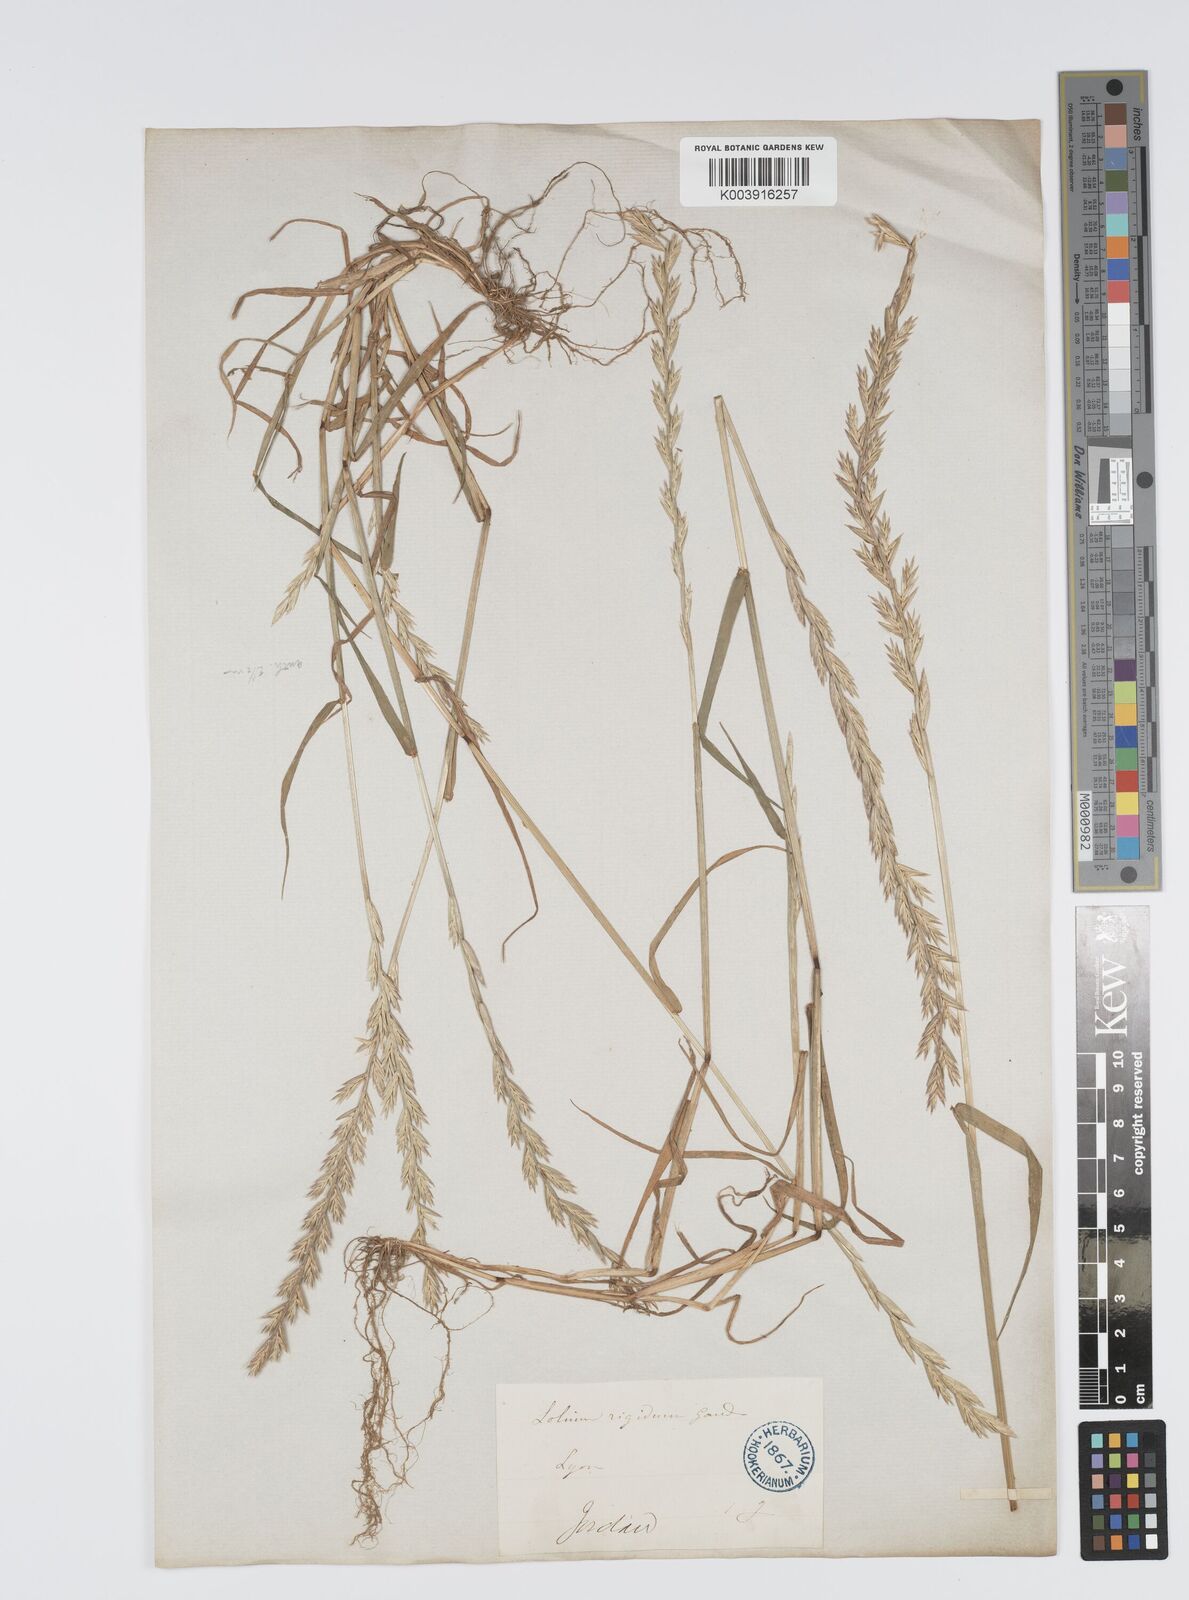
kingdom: Plantae
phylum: Tracheophyta
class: Liliopsida
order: Poales
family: Poaceae
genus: Lolium
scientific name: Lolium rigidum
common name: Wimmera ryegrass
